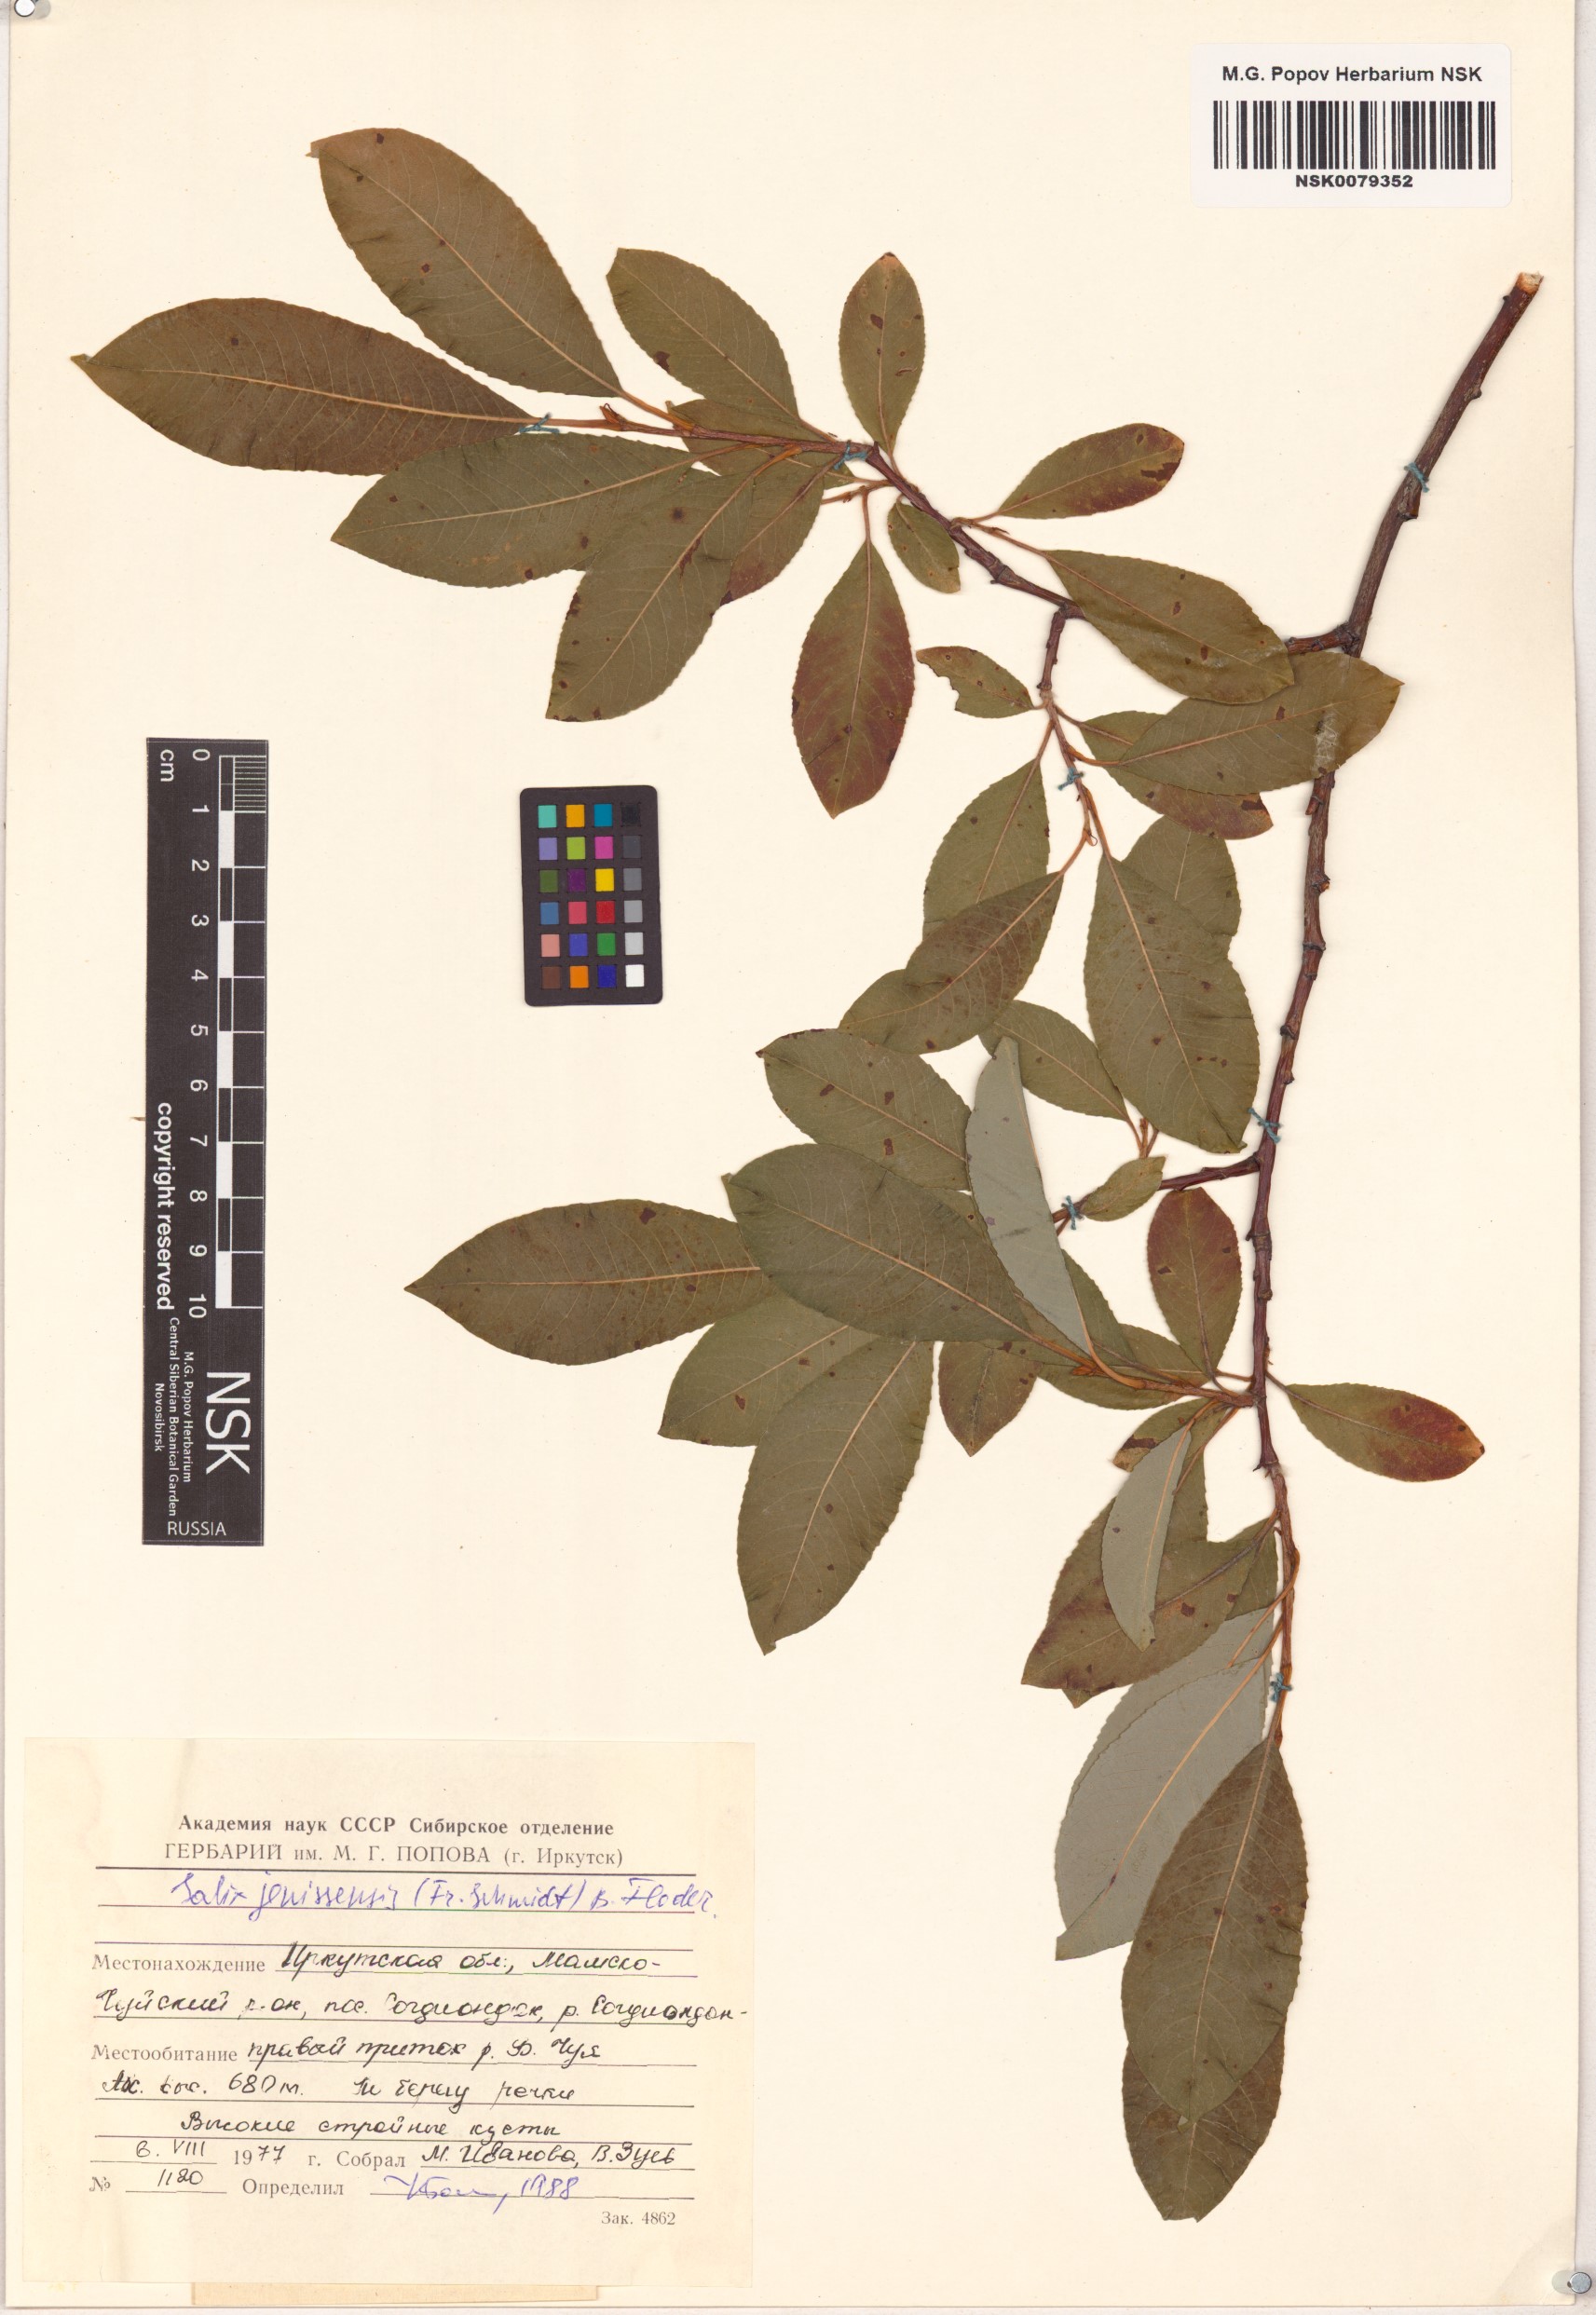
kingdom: Plantae
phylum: Tracheophyta
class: Magnoliopsida
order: Malpighiales
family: Salicaceae
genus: Salix
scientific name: Salix jenisseensis
